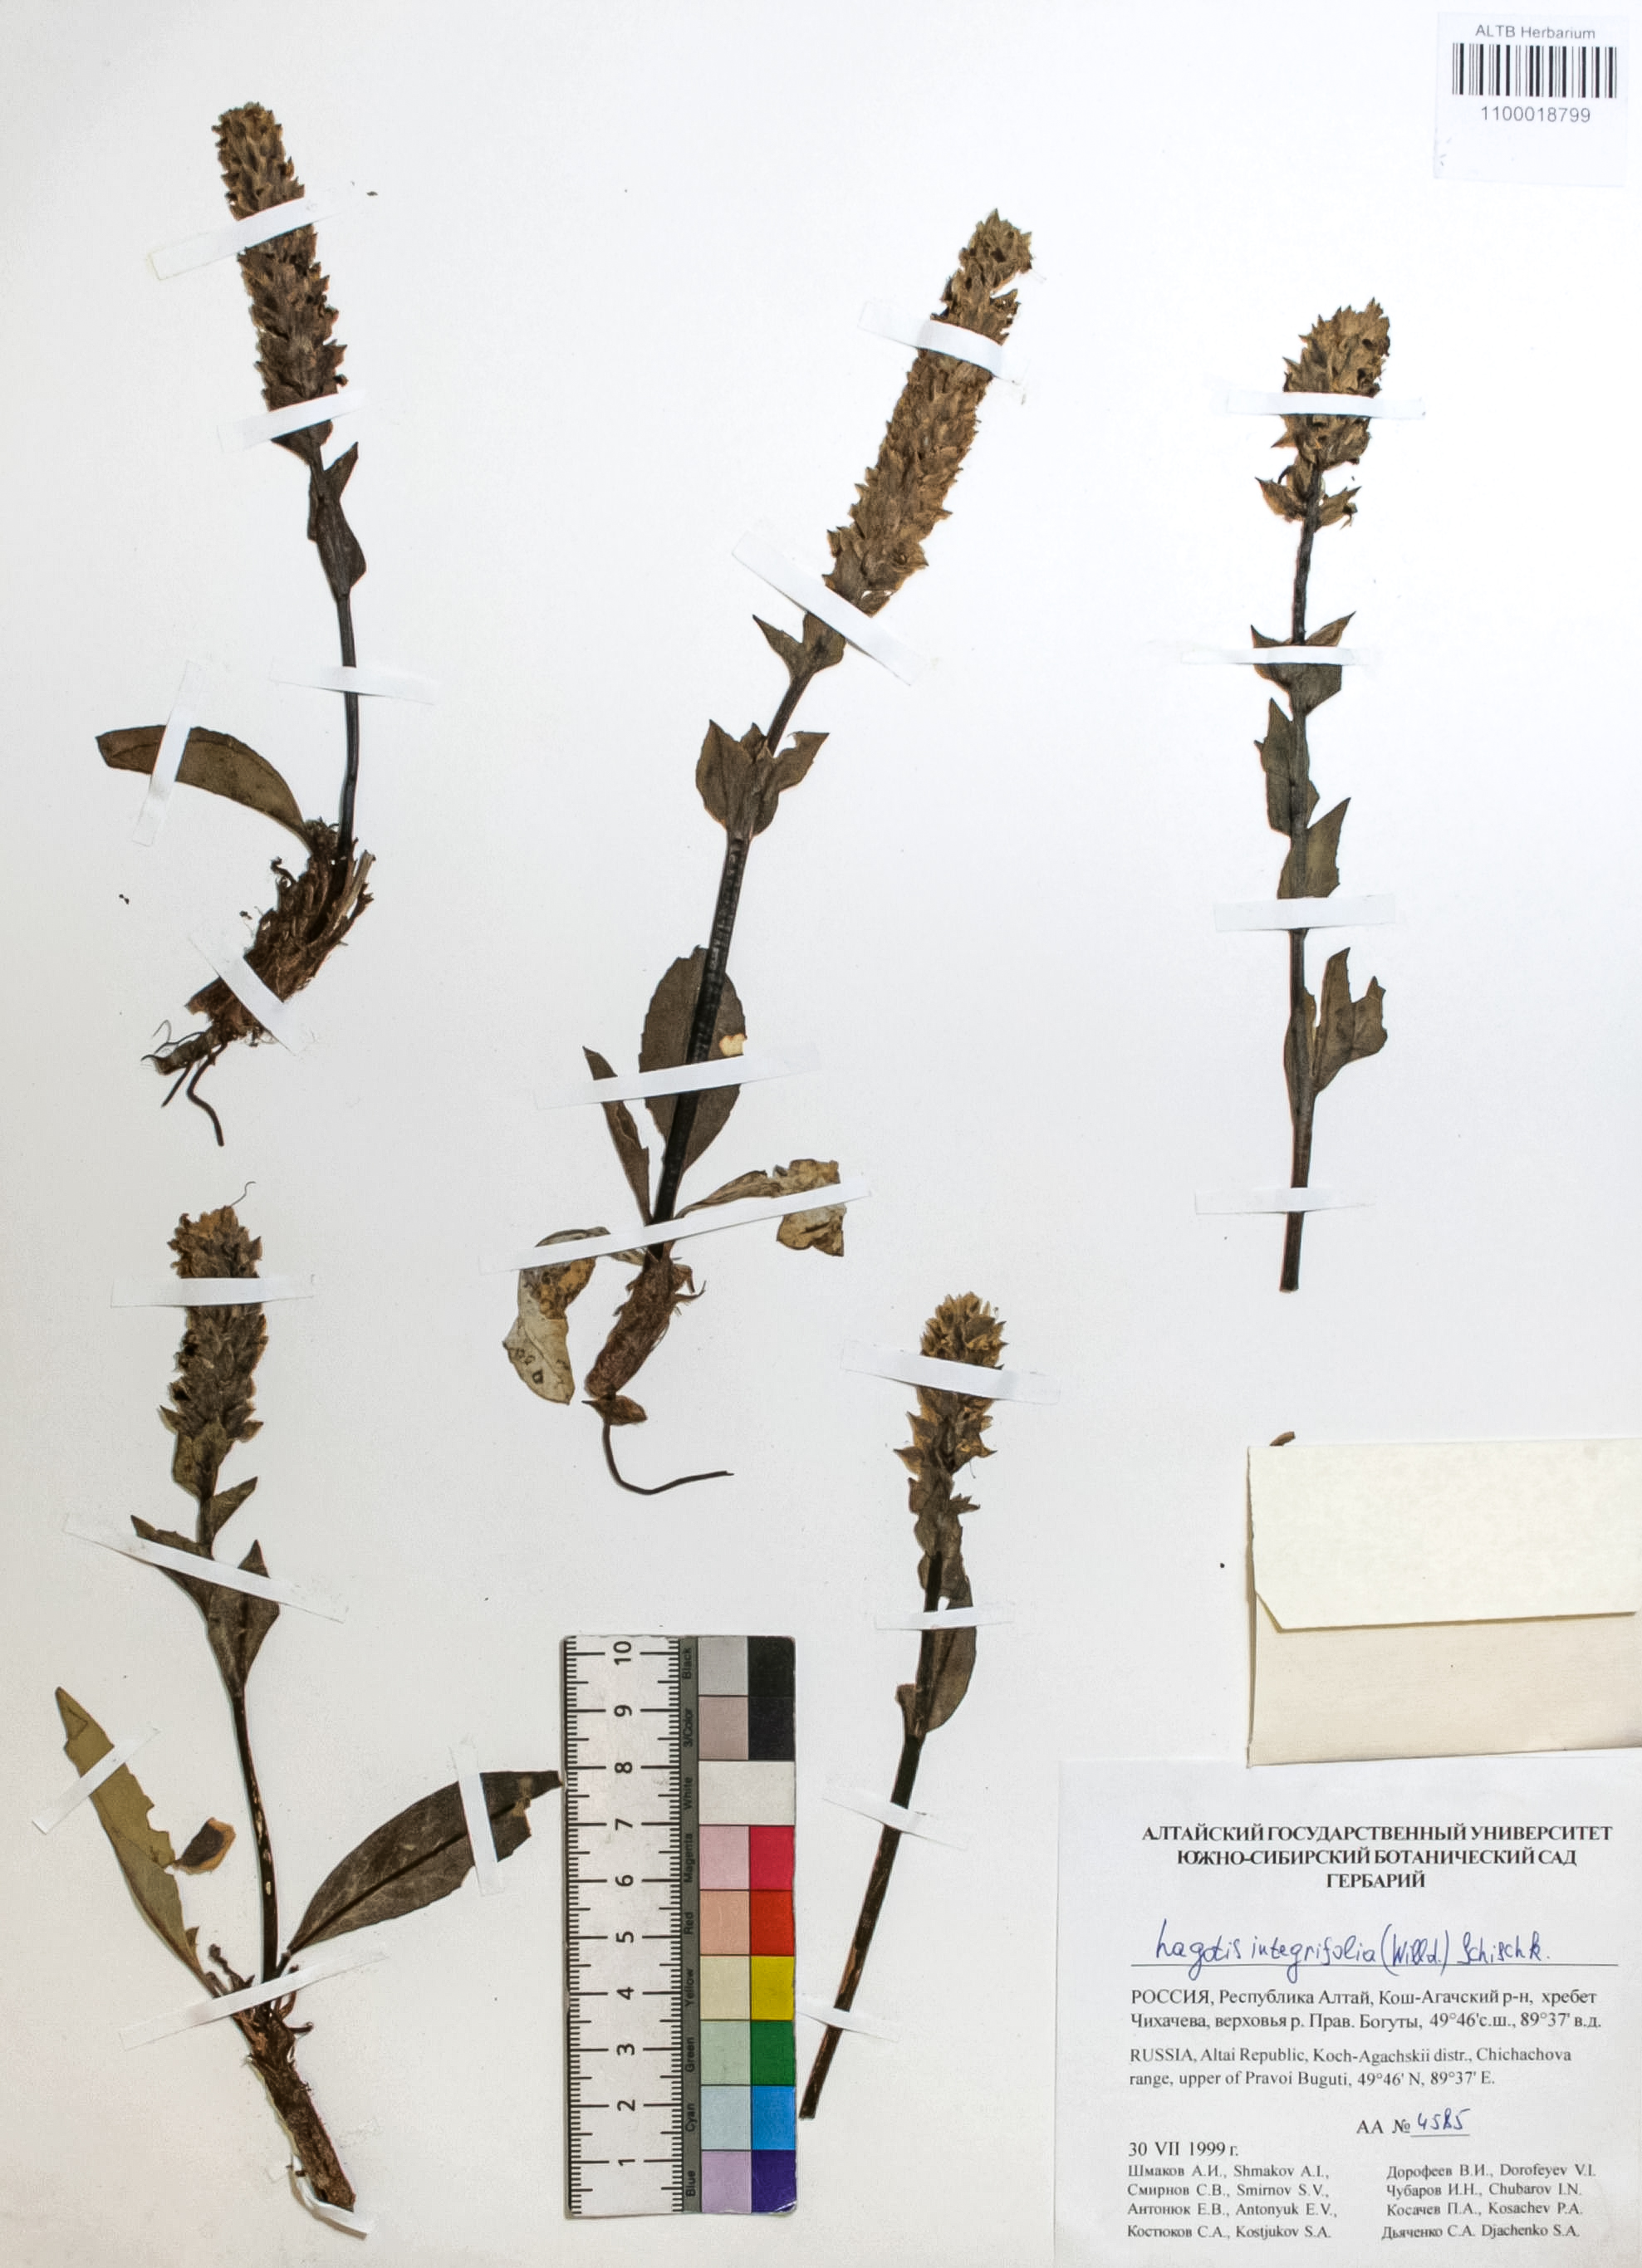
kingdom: Plantae
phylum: Tracheophyta
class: Magnoliopsida
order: Lamiales
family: Plantaginaceae
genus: Lagotis
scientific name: Lagotis integrifolia
